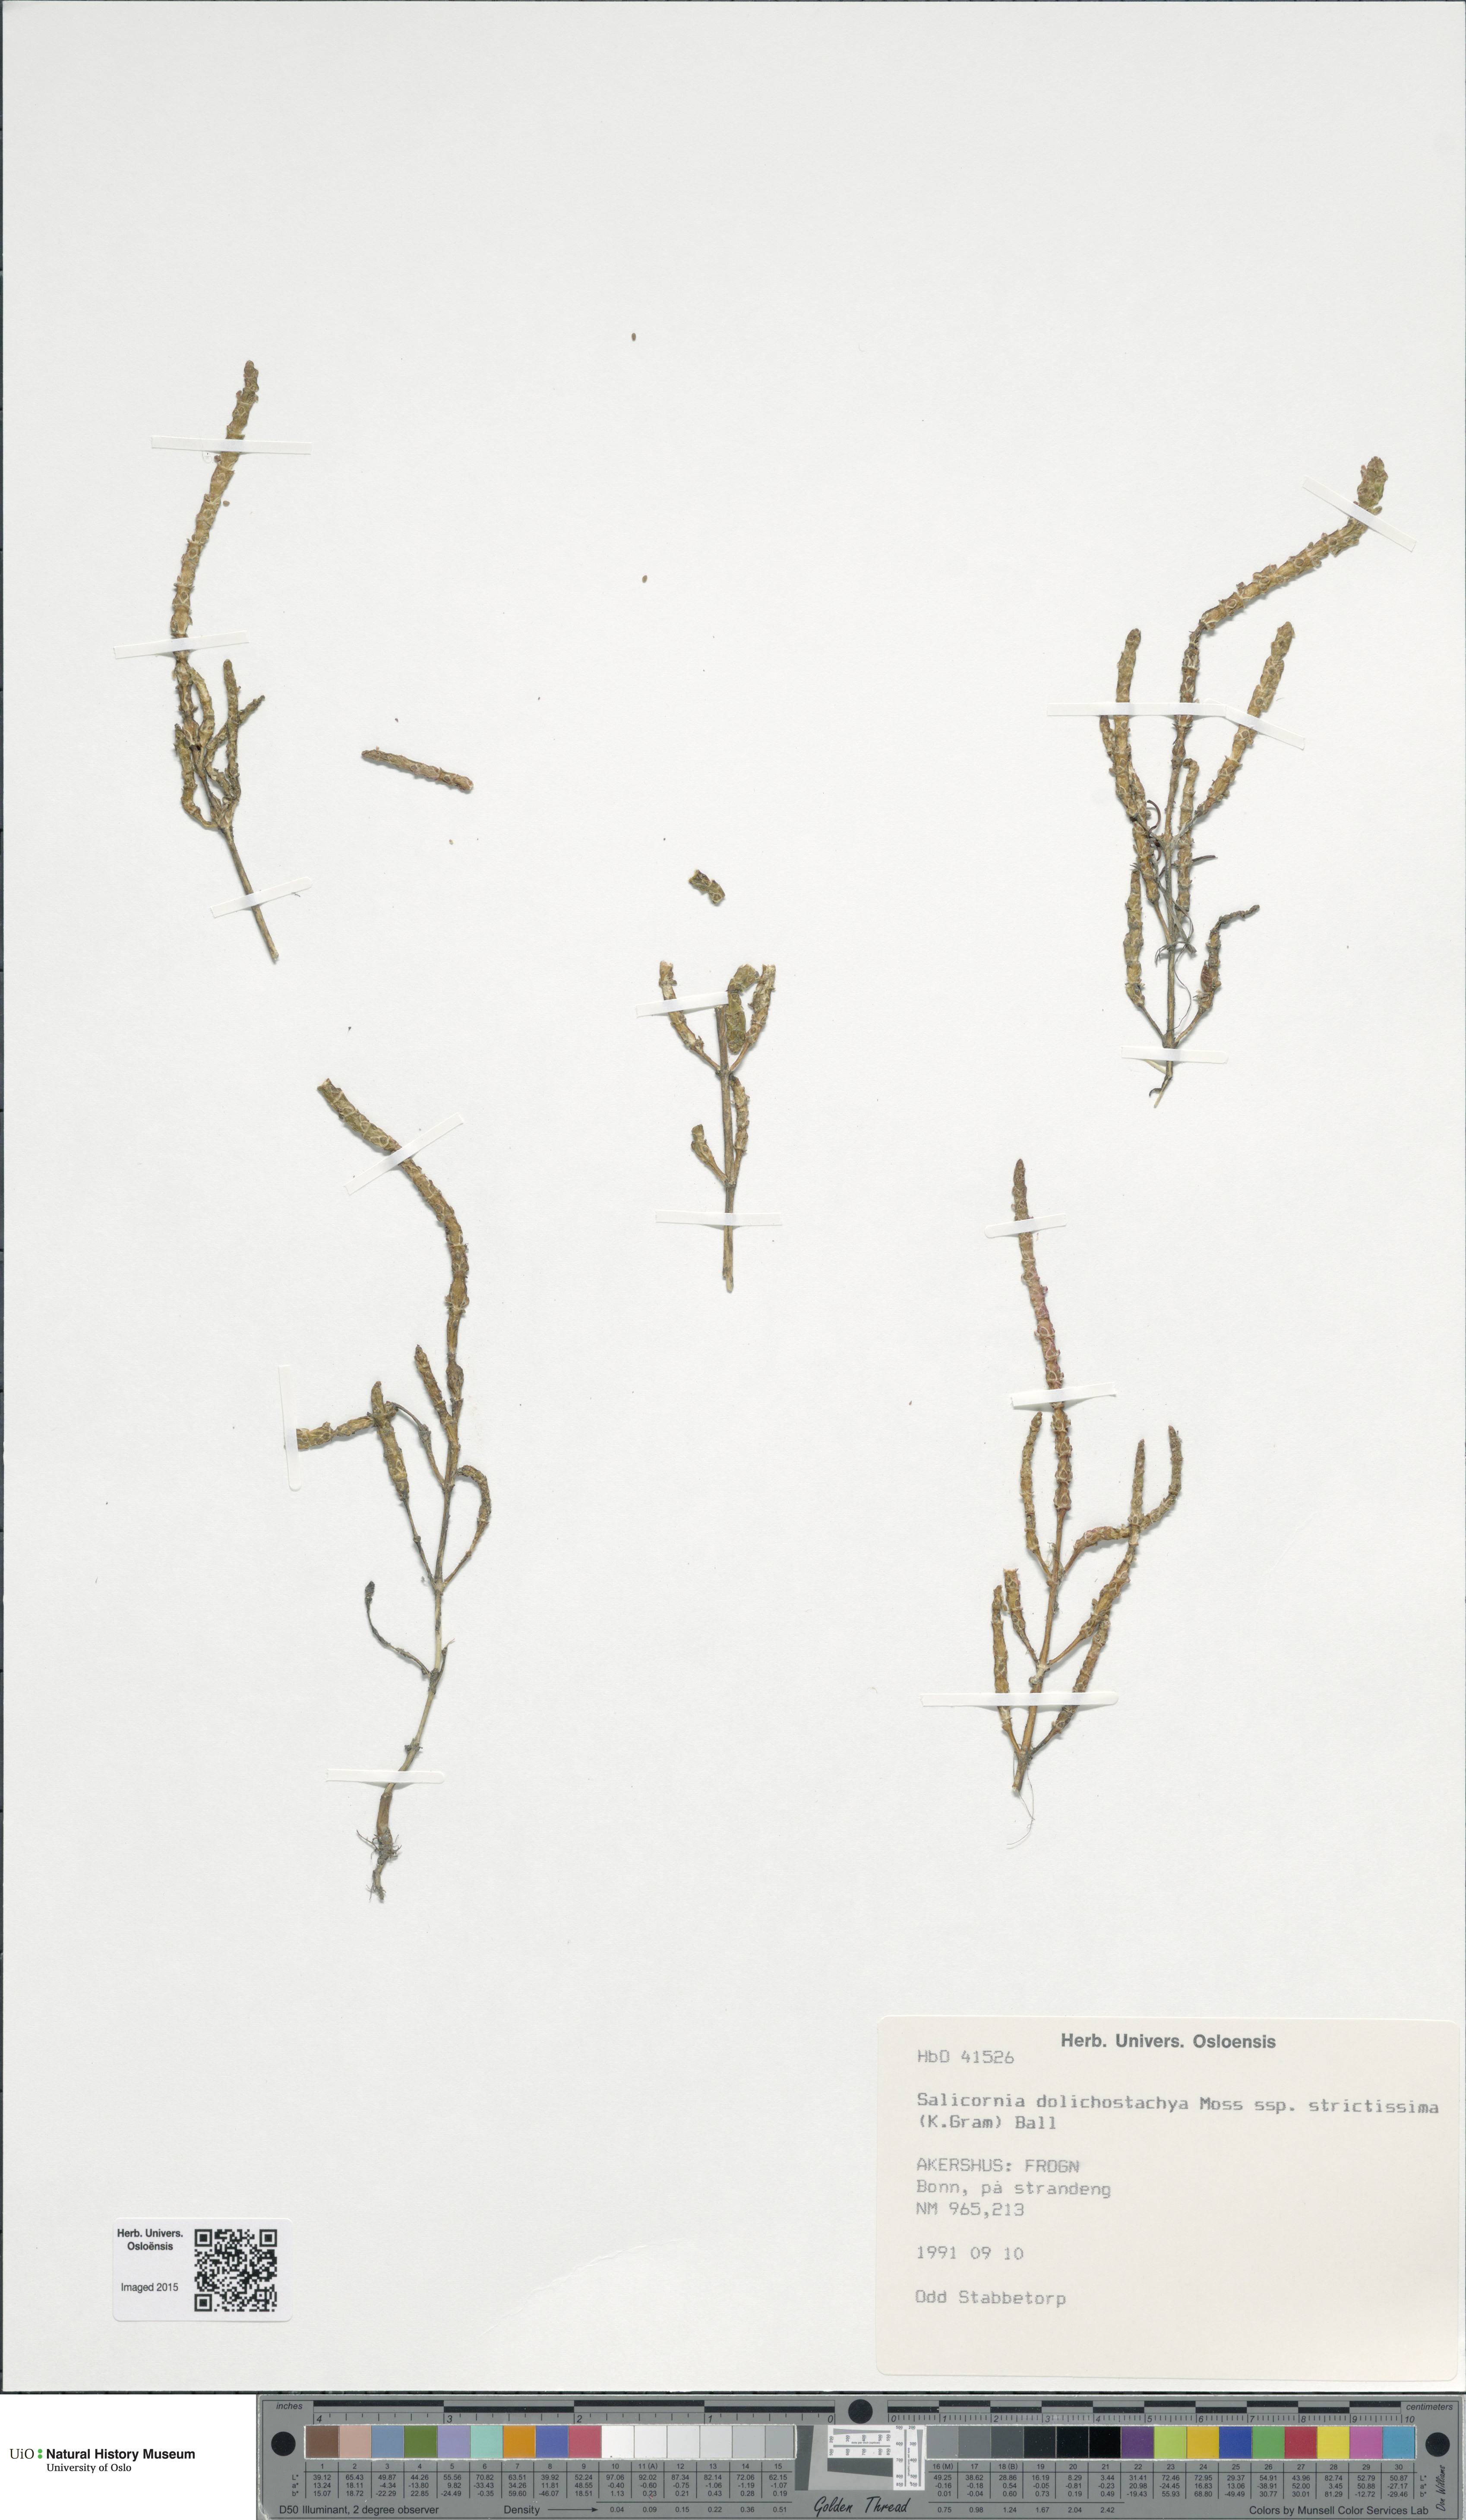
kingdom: Plantae
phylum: Tracheophyta
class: Magnoliopsida
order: Caryophyllales
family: Amaranthaceae
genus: Salicornia
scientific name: Salicornia procumbens
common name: Long-spiked glasswort
